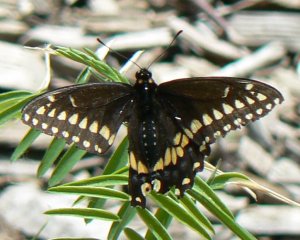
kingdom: Animalia
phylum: Arthropoda
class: Insecta
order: Lepidoptera
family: Papilionidae
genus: Papilio
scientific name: Papilio polyxenes
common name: Black Swallowtail
